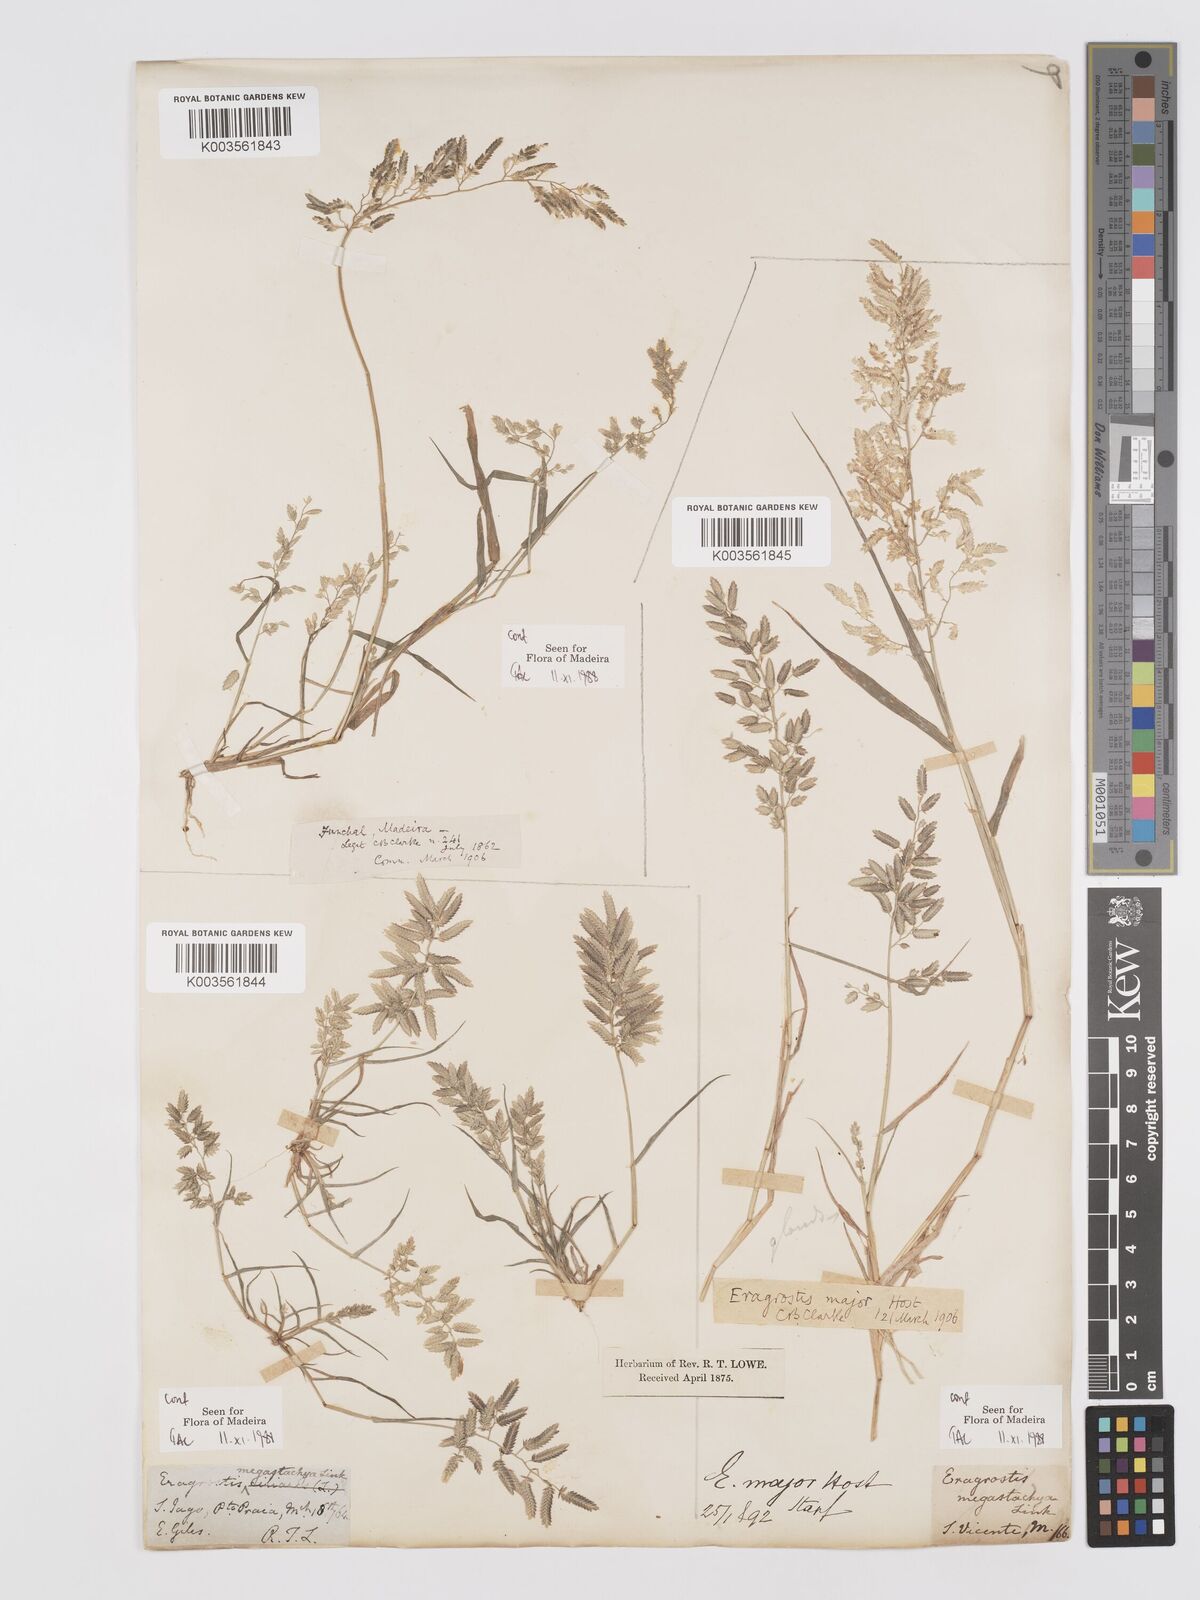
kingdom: Plantae
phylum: Tracheophyta
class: Liliopsida
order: Poales
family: Poaceae
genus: Eragrostis
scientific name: Eragrostis cilianensis
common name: Stinkgrass
